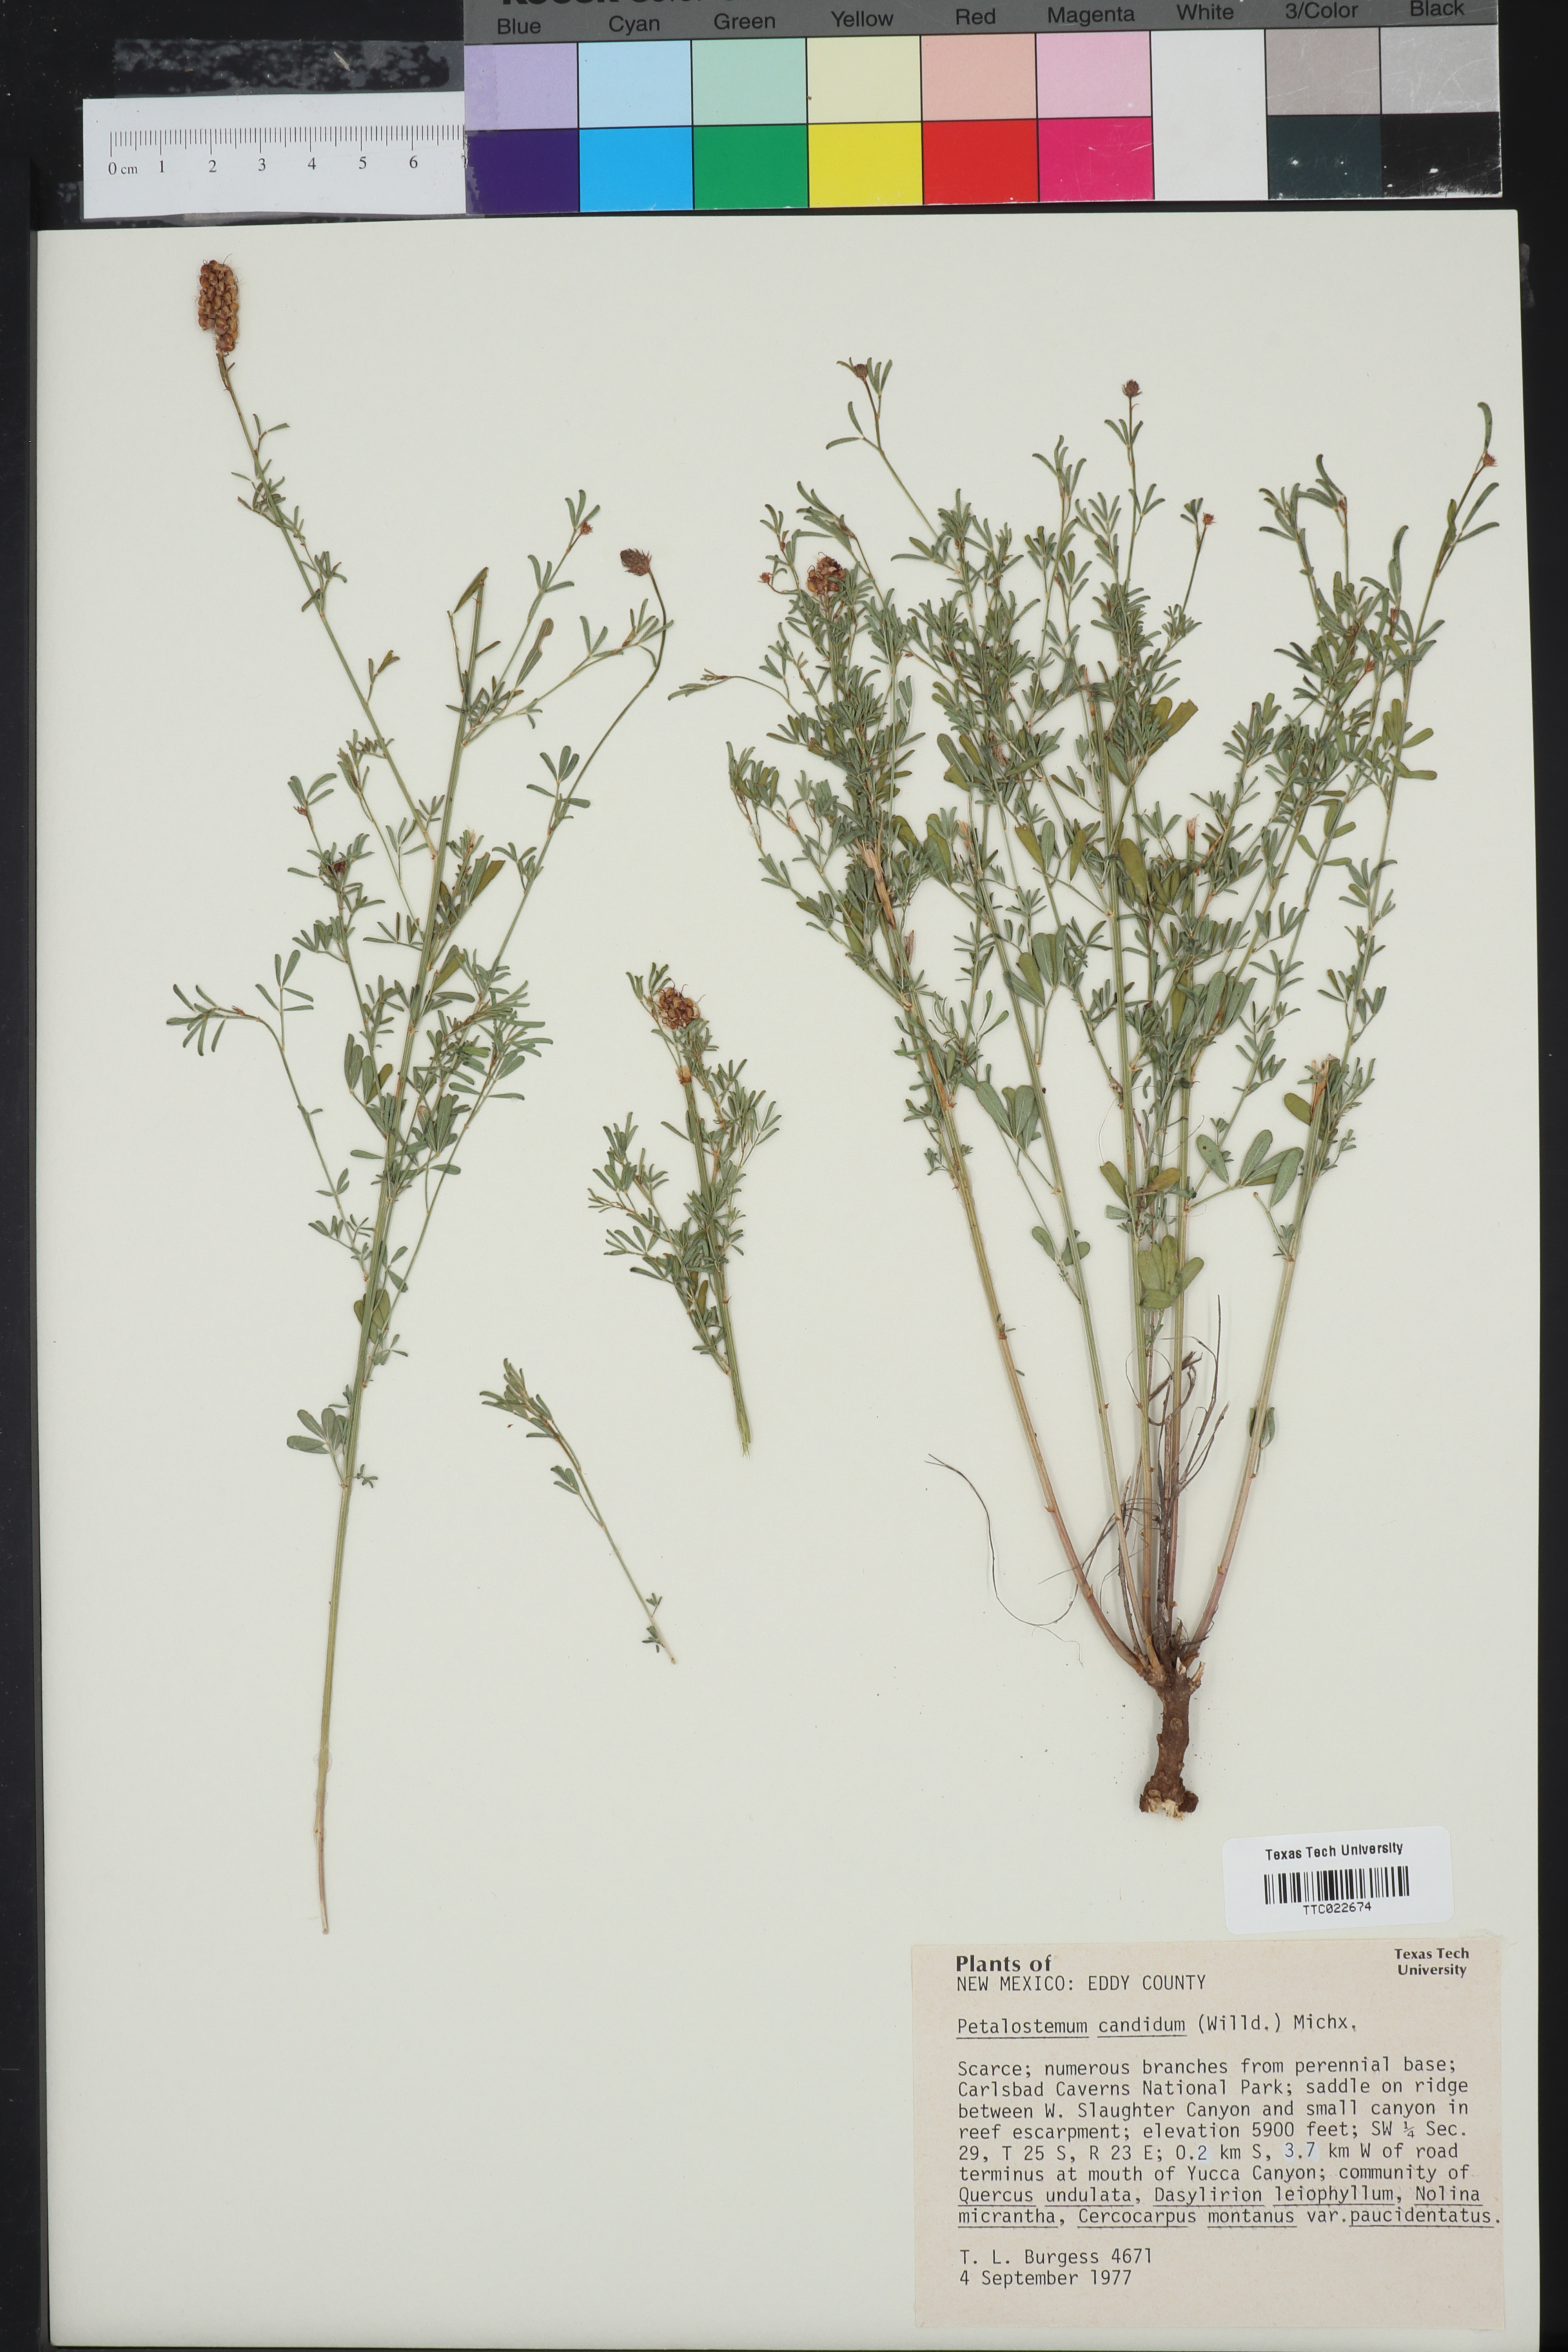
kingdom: Plantae
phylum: Tracheophyta
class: Magnoliopsida
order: Fabales
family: Fabaceae
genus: Dalea
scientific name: Dalea candida
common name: White prairie-clover
